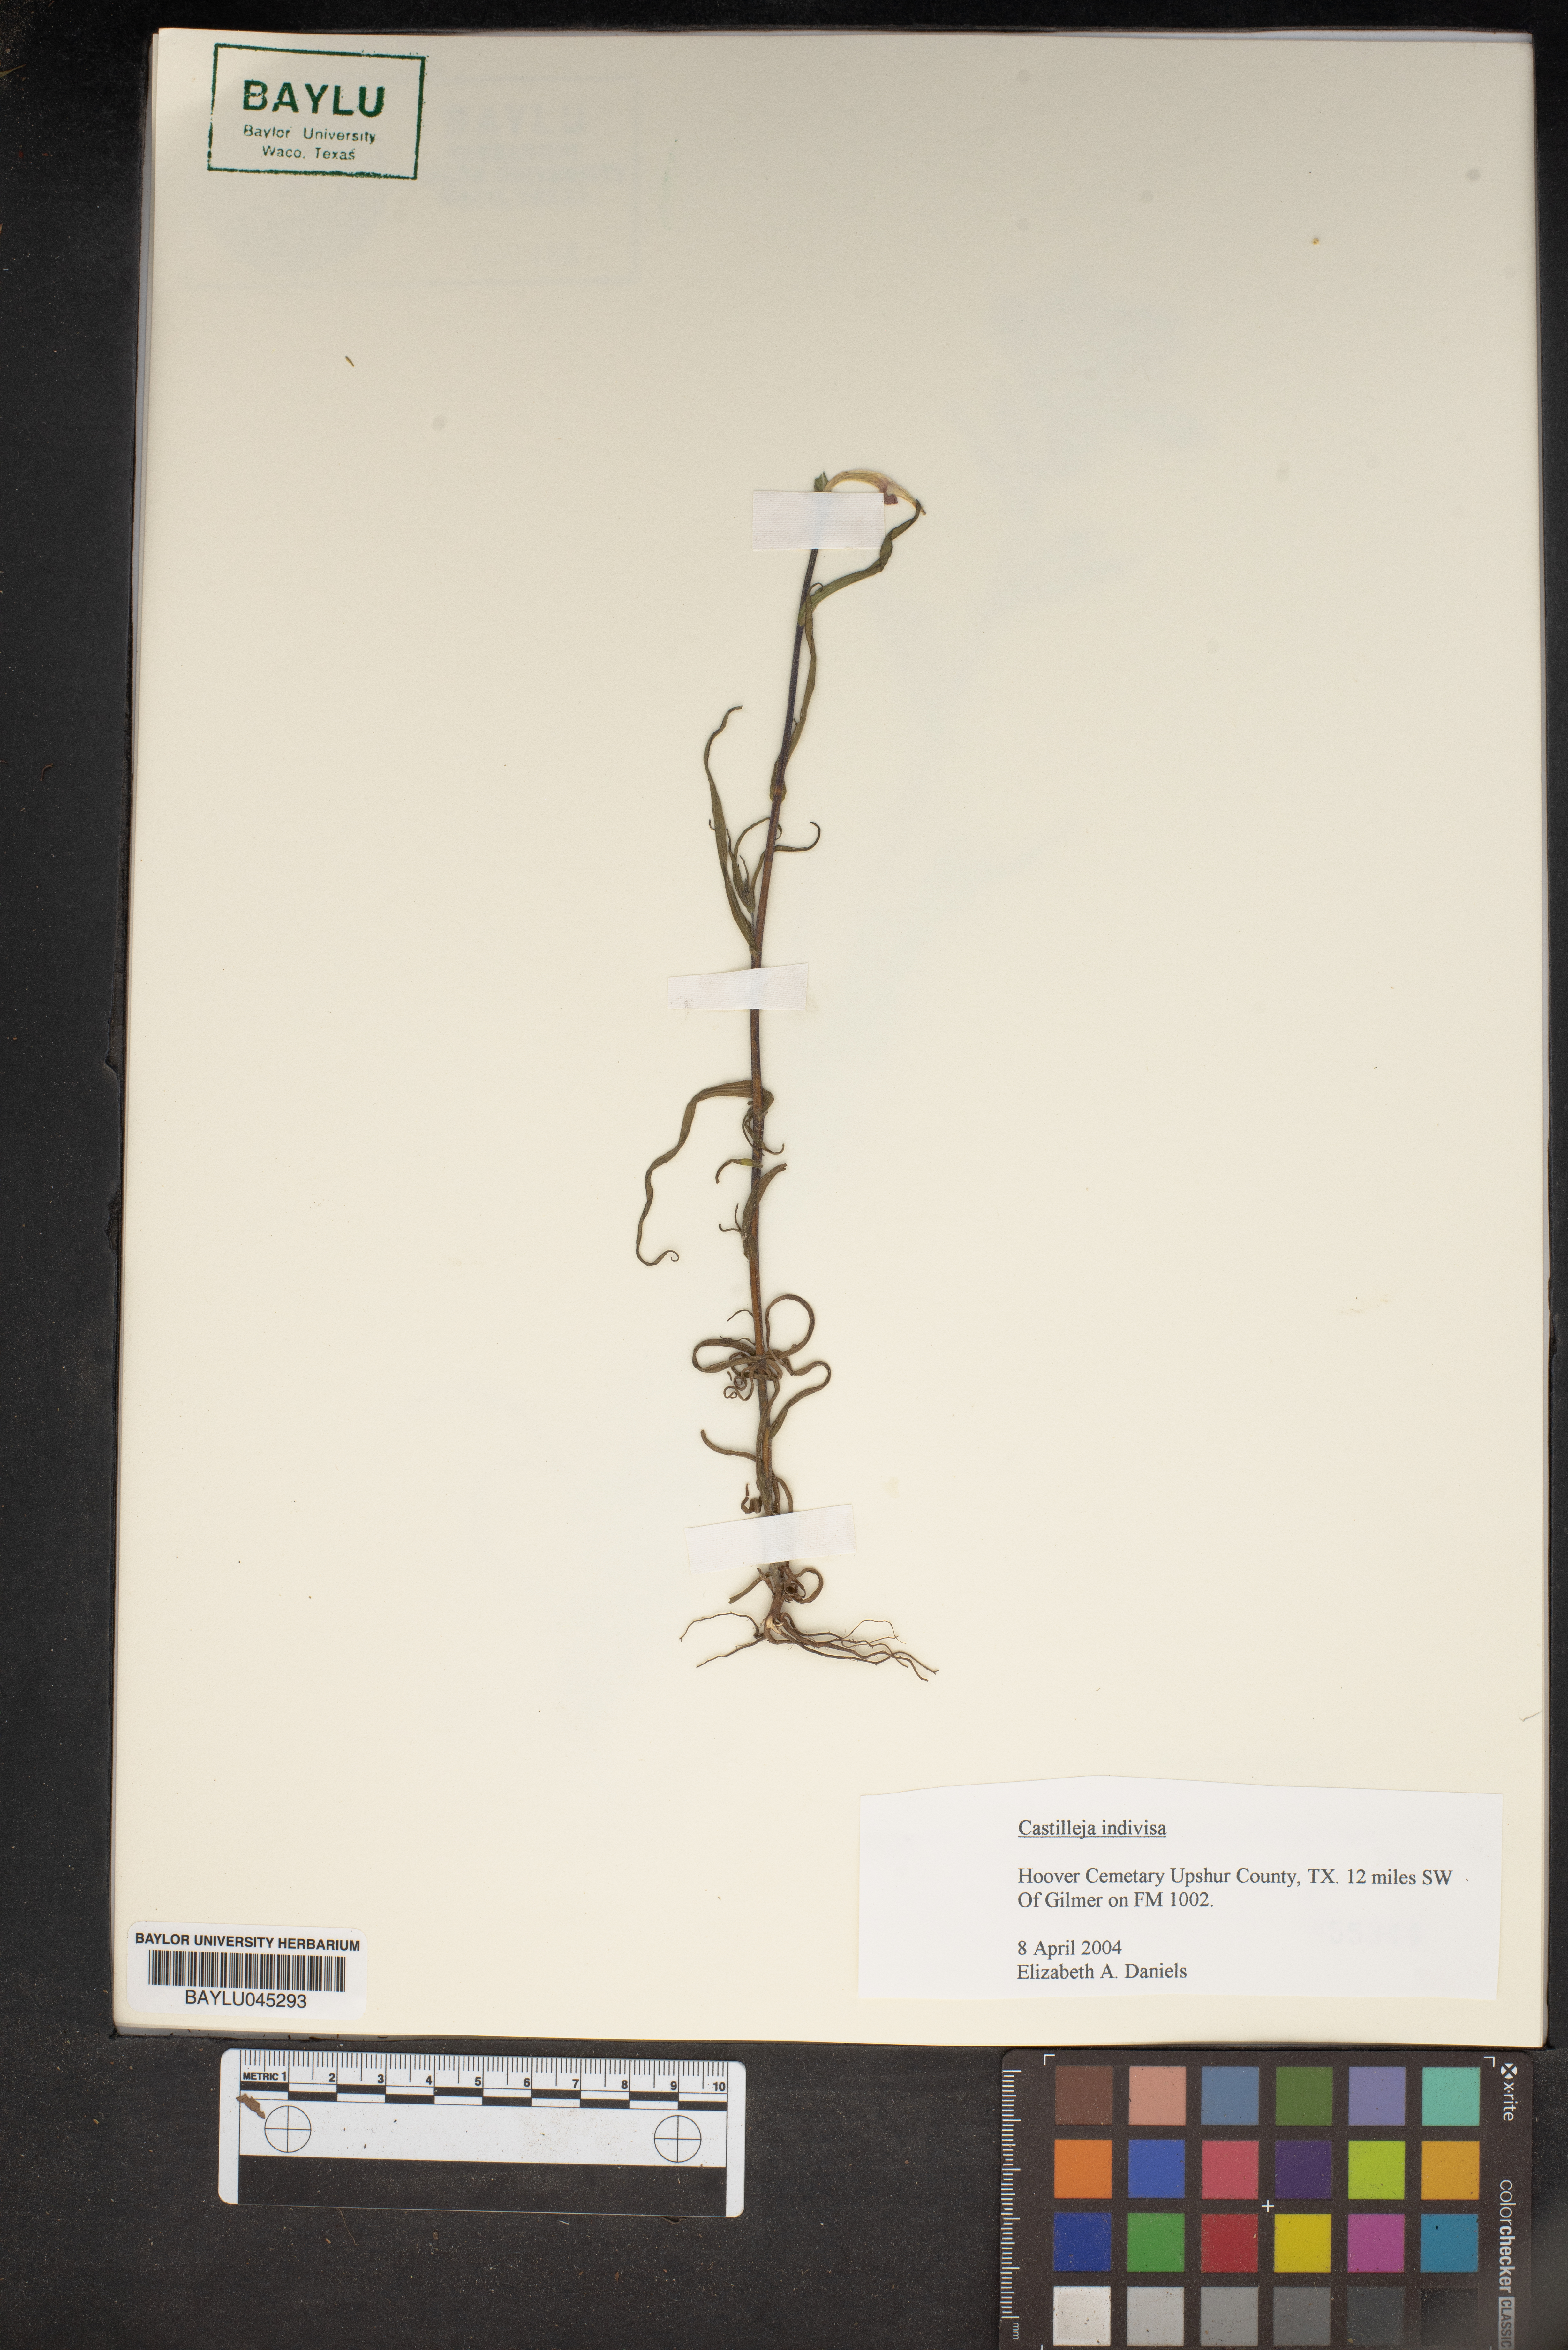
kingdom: Plantae
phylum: Tracheophyta
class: Magnoliopsida
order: Lamiales
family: Orobanchaceae
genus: Castilleja
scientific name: Castilleja indivisa
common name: Texas paintbrush
